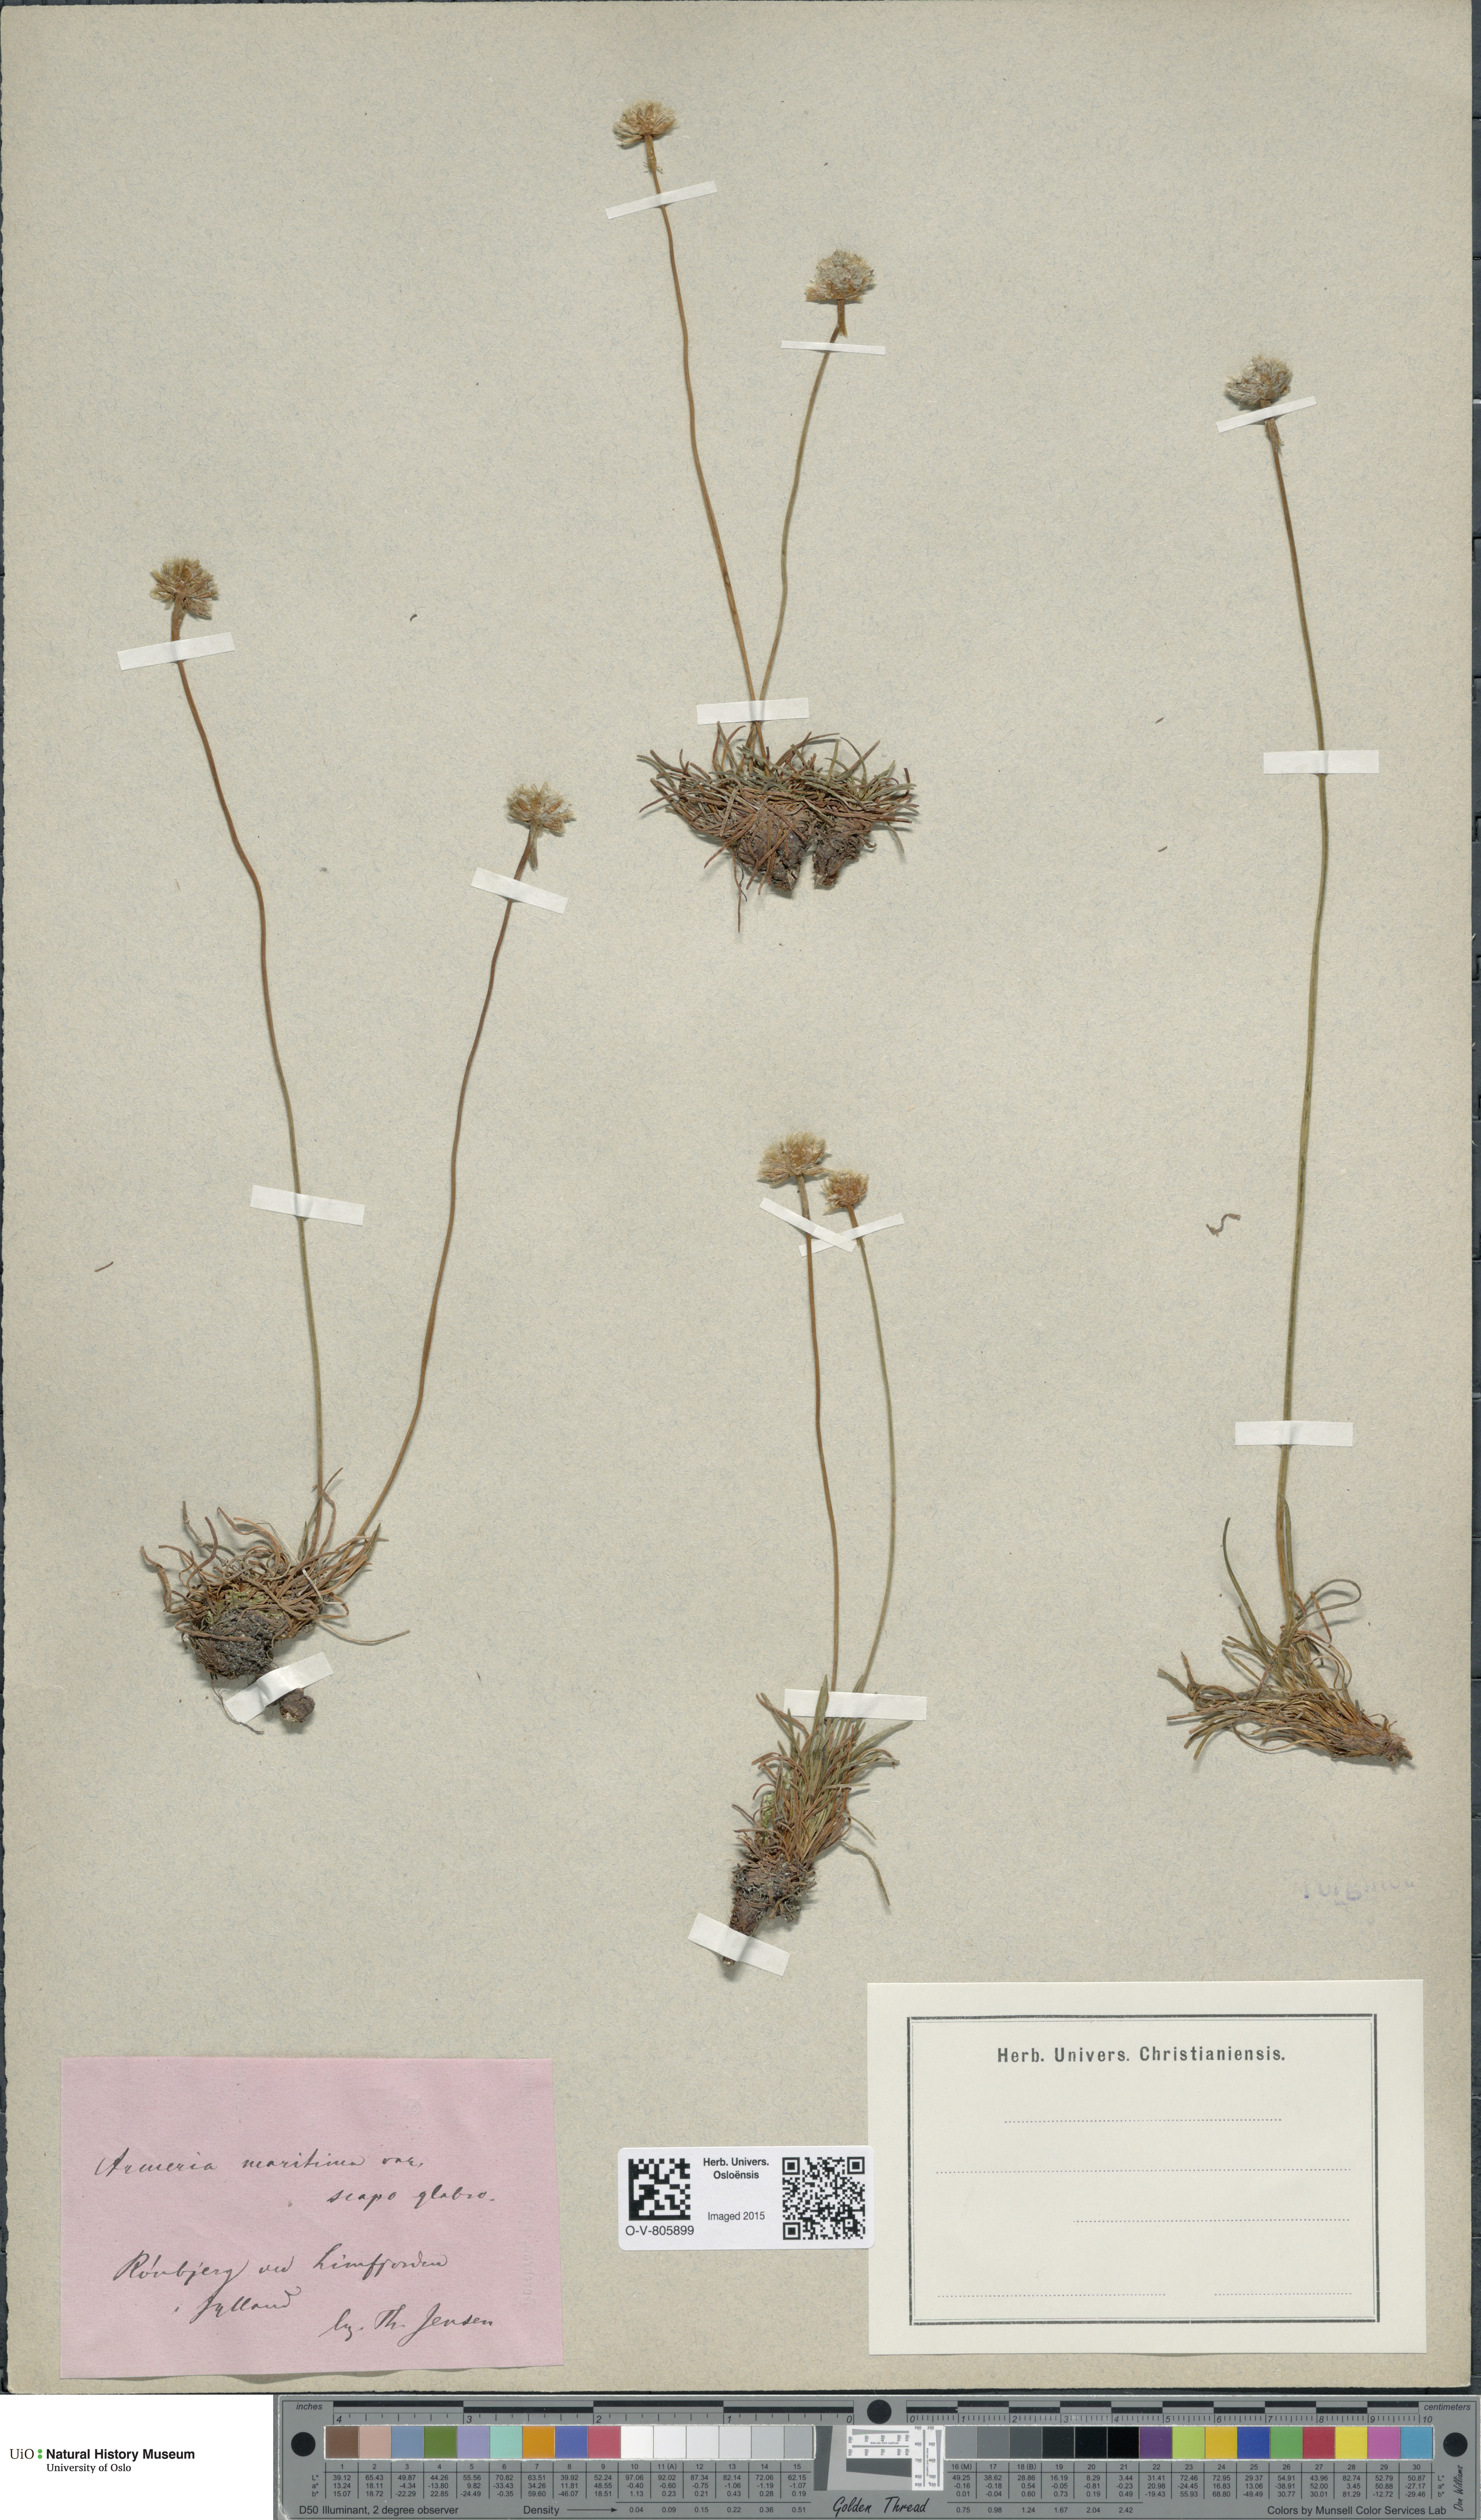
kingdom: Plantae
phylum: Tracheophyta
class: Magnoliopsida
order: Caryophyllales
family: Plumbaginaceae
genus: Armeria
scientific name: Armeria maritima
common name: Thrift
